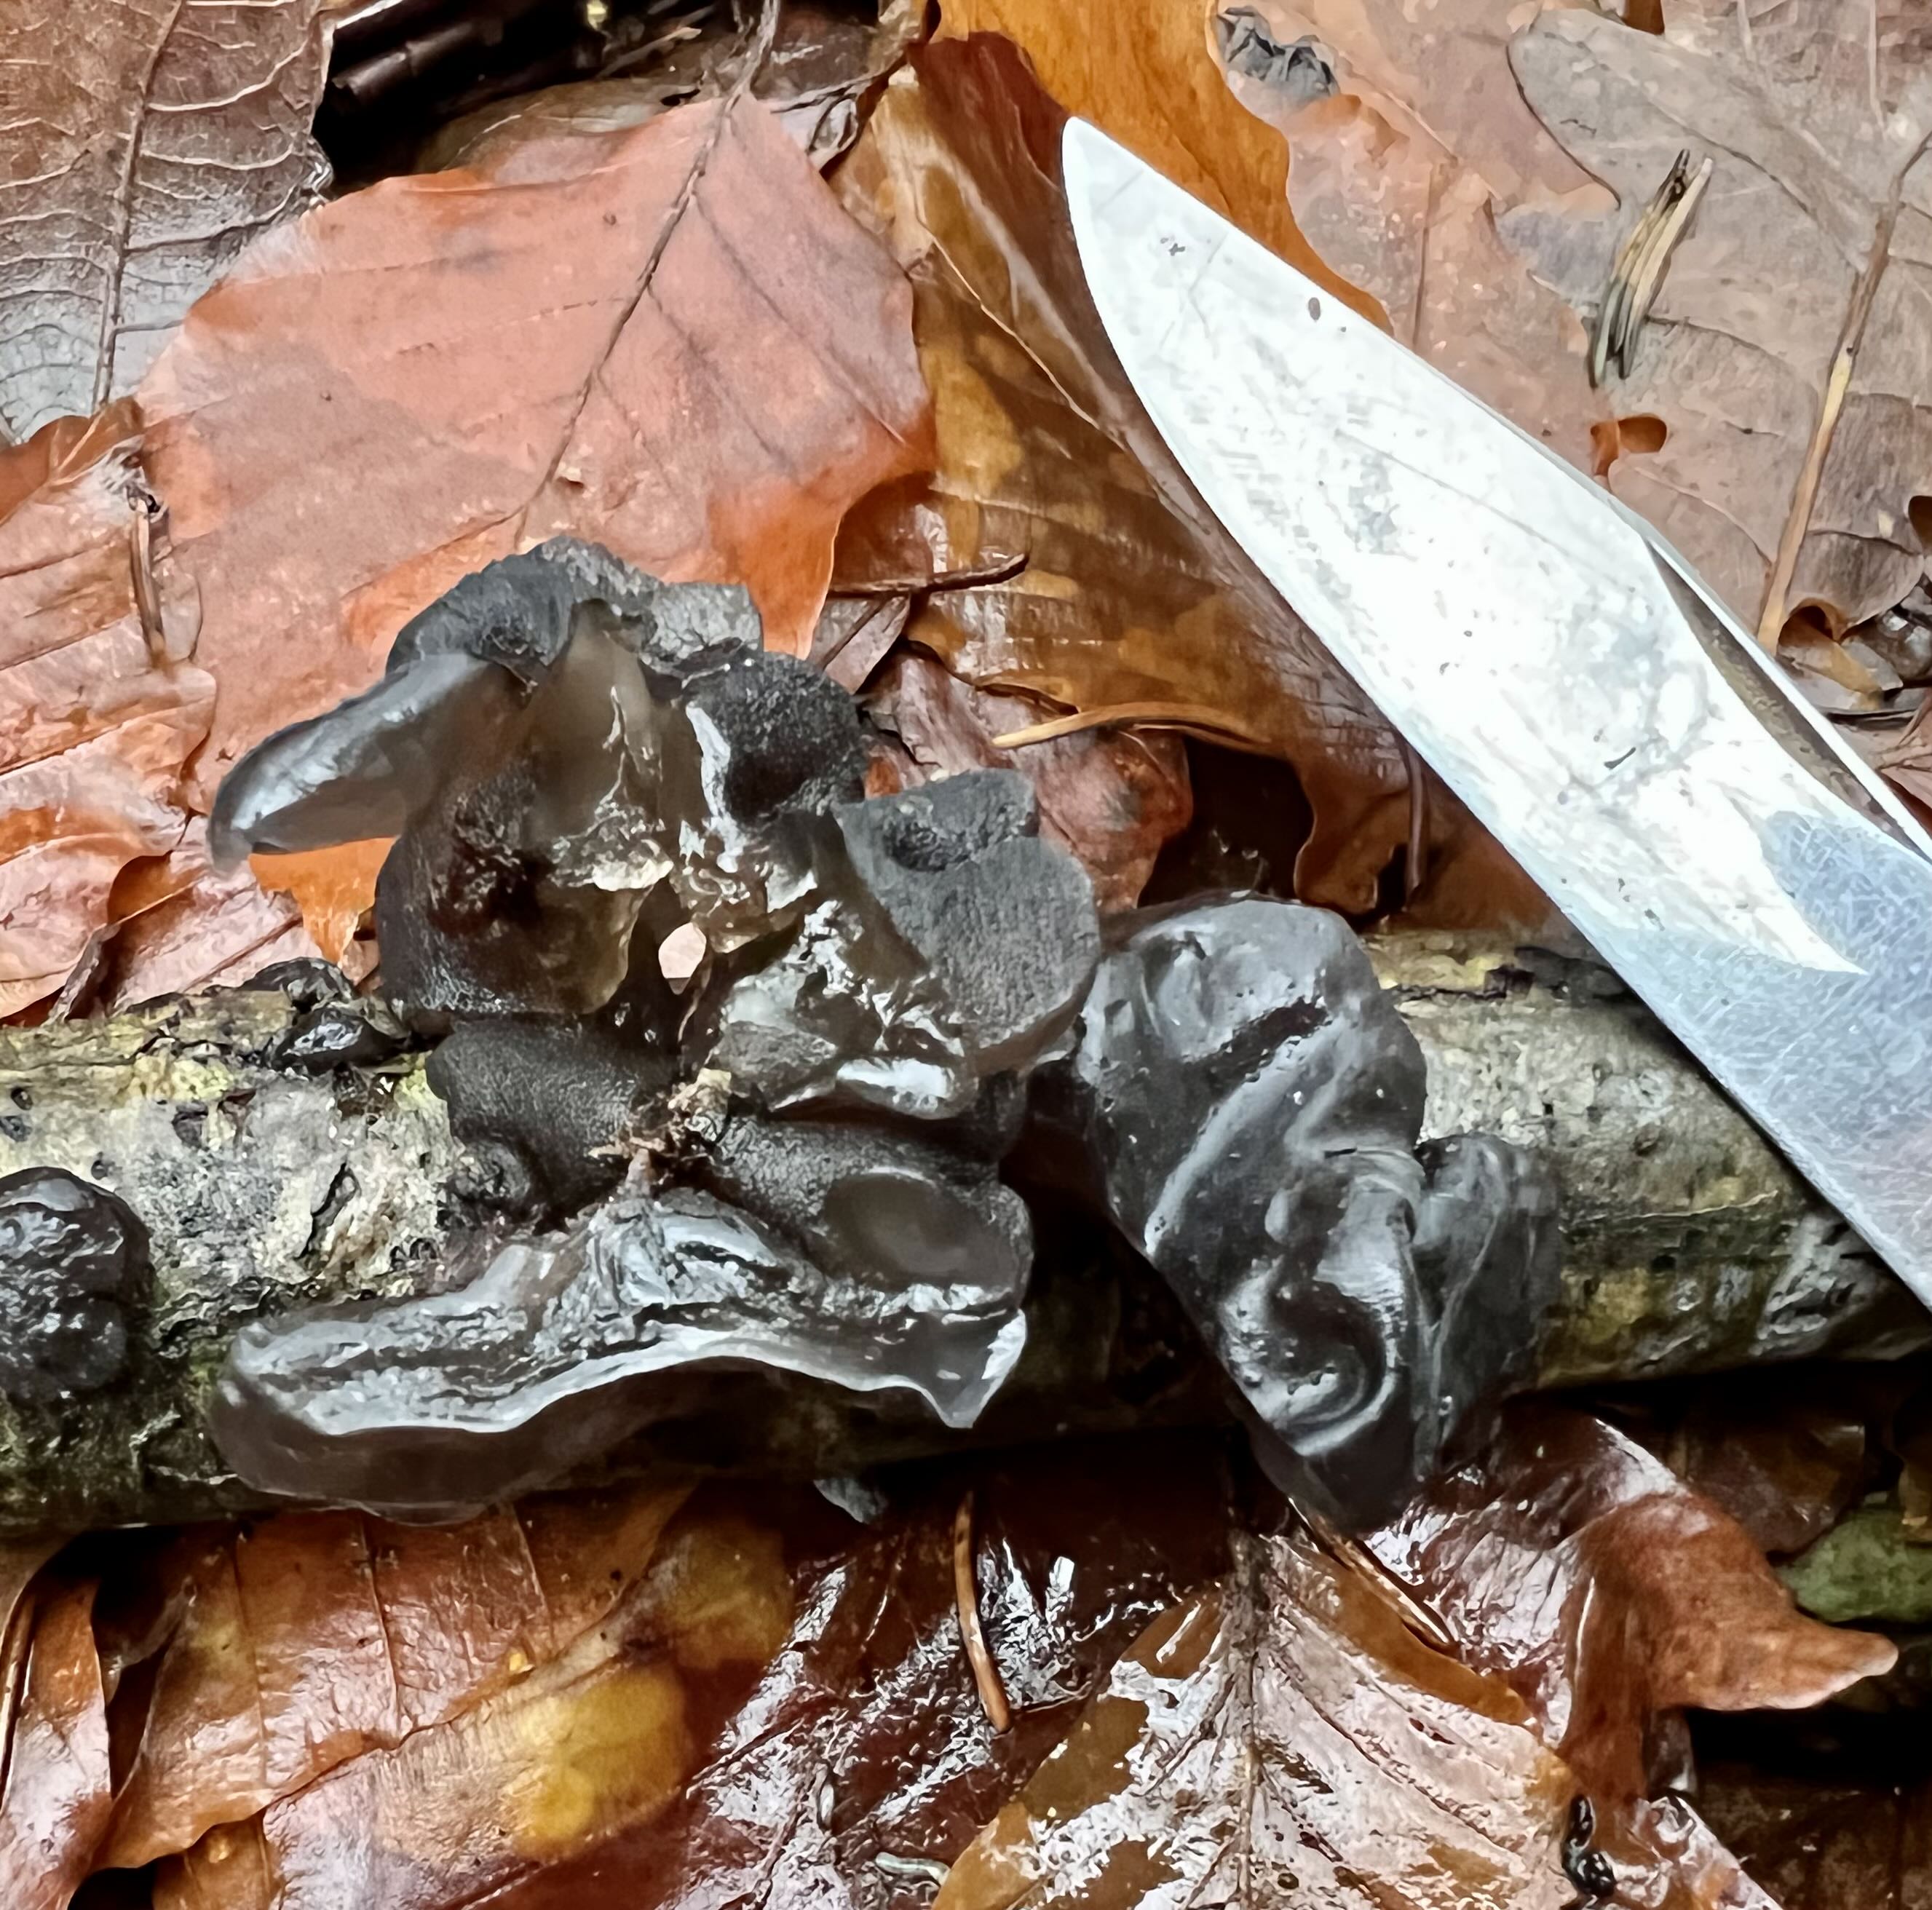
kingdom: Fungi
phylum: Basidiomycota
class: Agaricomycetes
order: Auriculariales
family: Auriculariaceae
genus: Exidia
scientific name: Exidia glandulosa
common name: ege-bævretop
